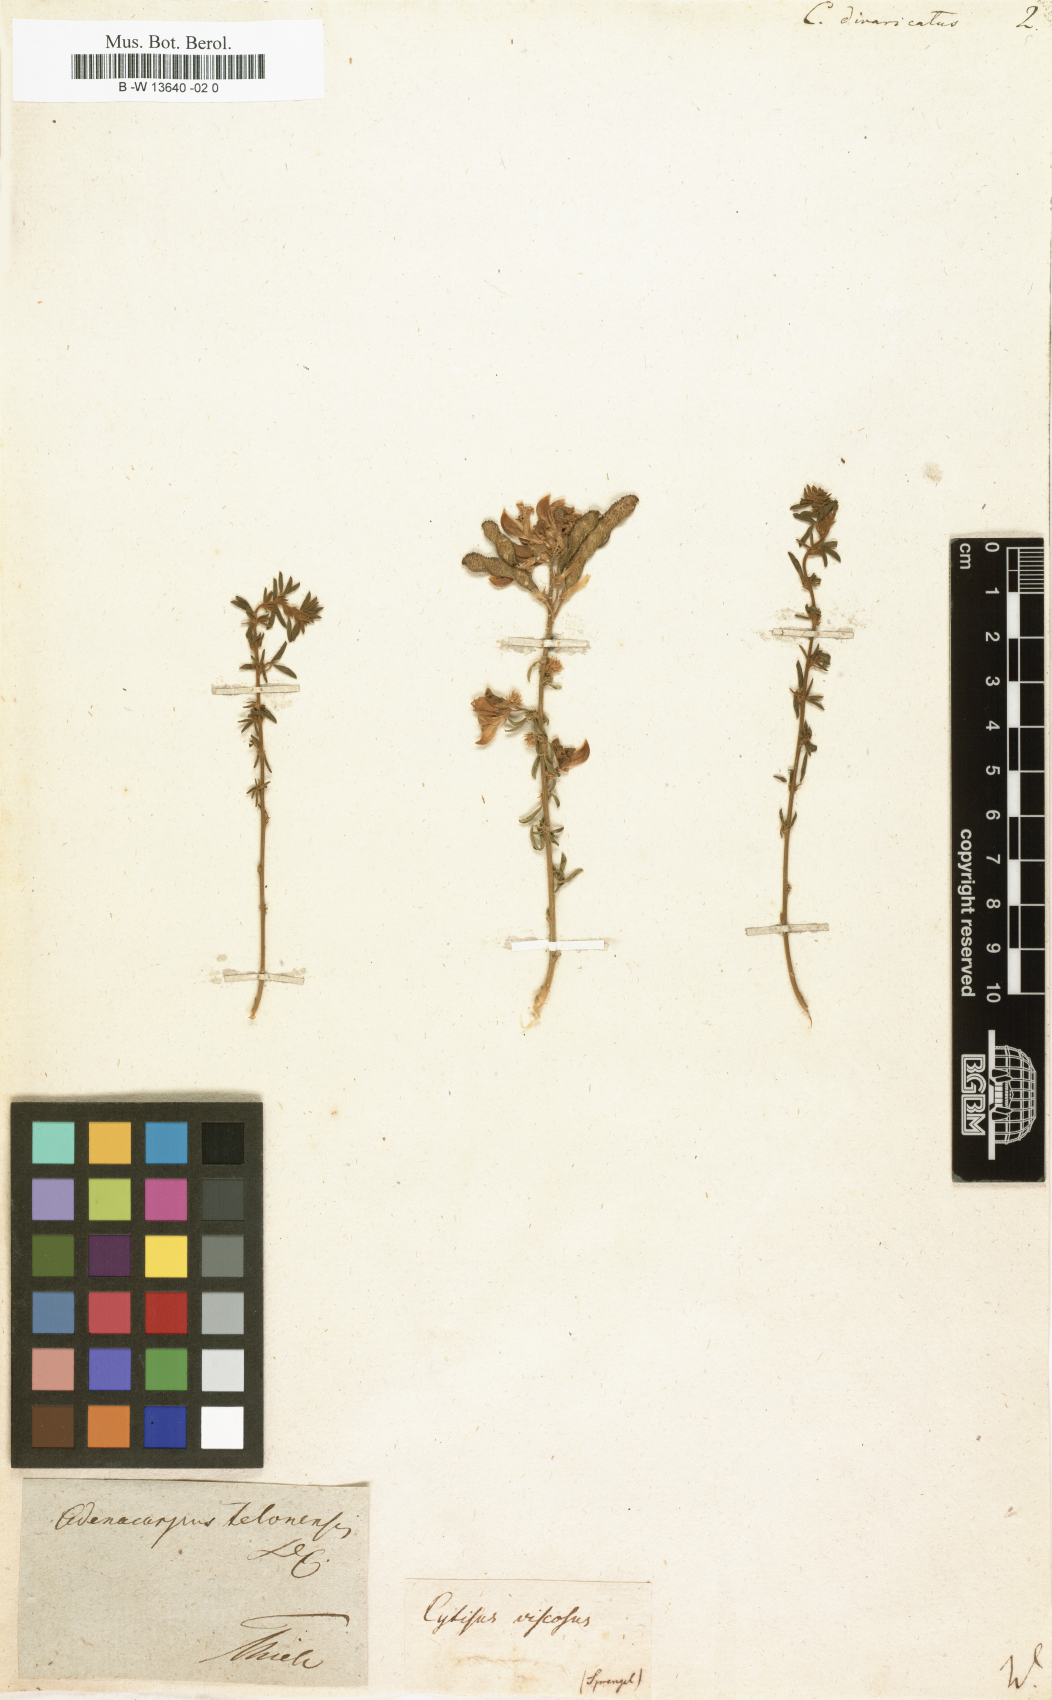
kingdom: Plantae
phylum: Tracheophyta
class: Magnoliopsida
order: Fabales
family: Fabaceae
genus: Adenocarpus
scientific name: Adenocarpus complicatus
